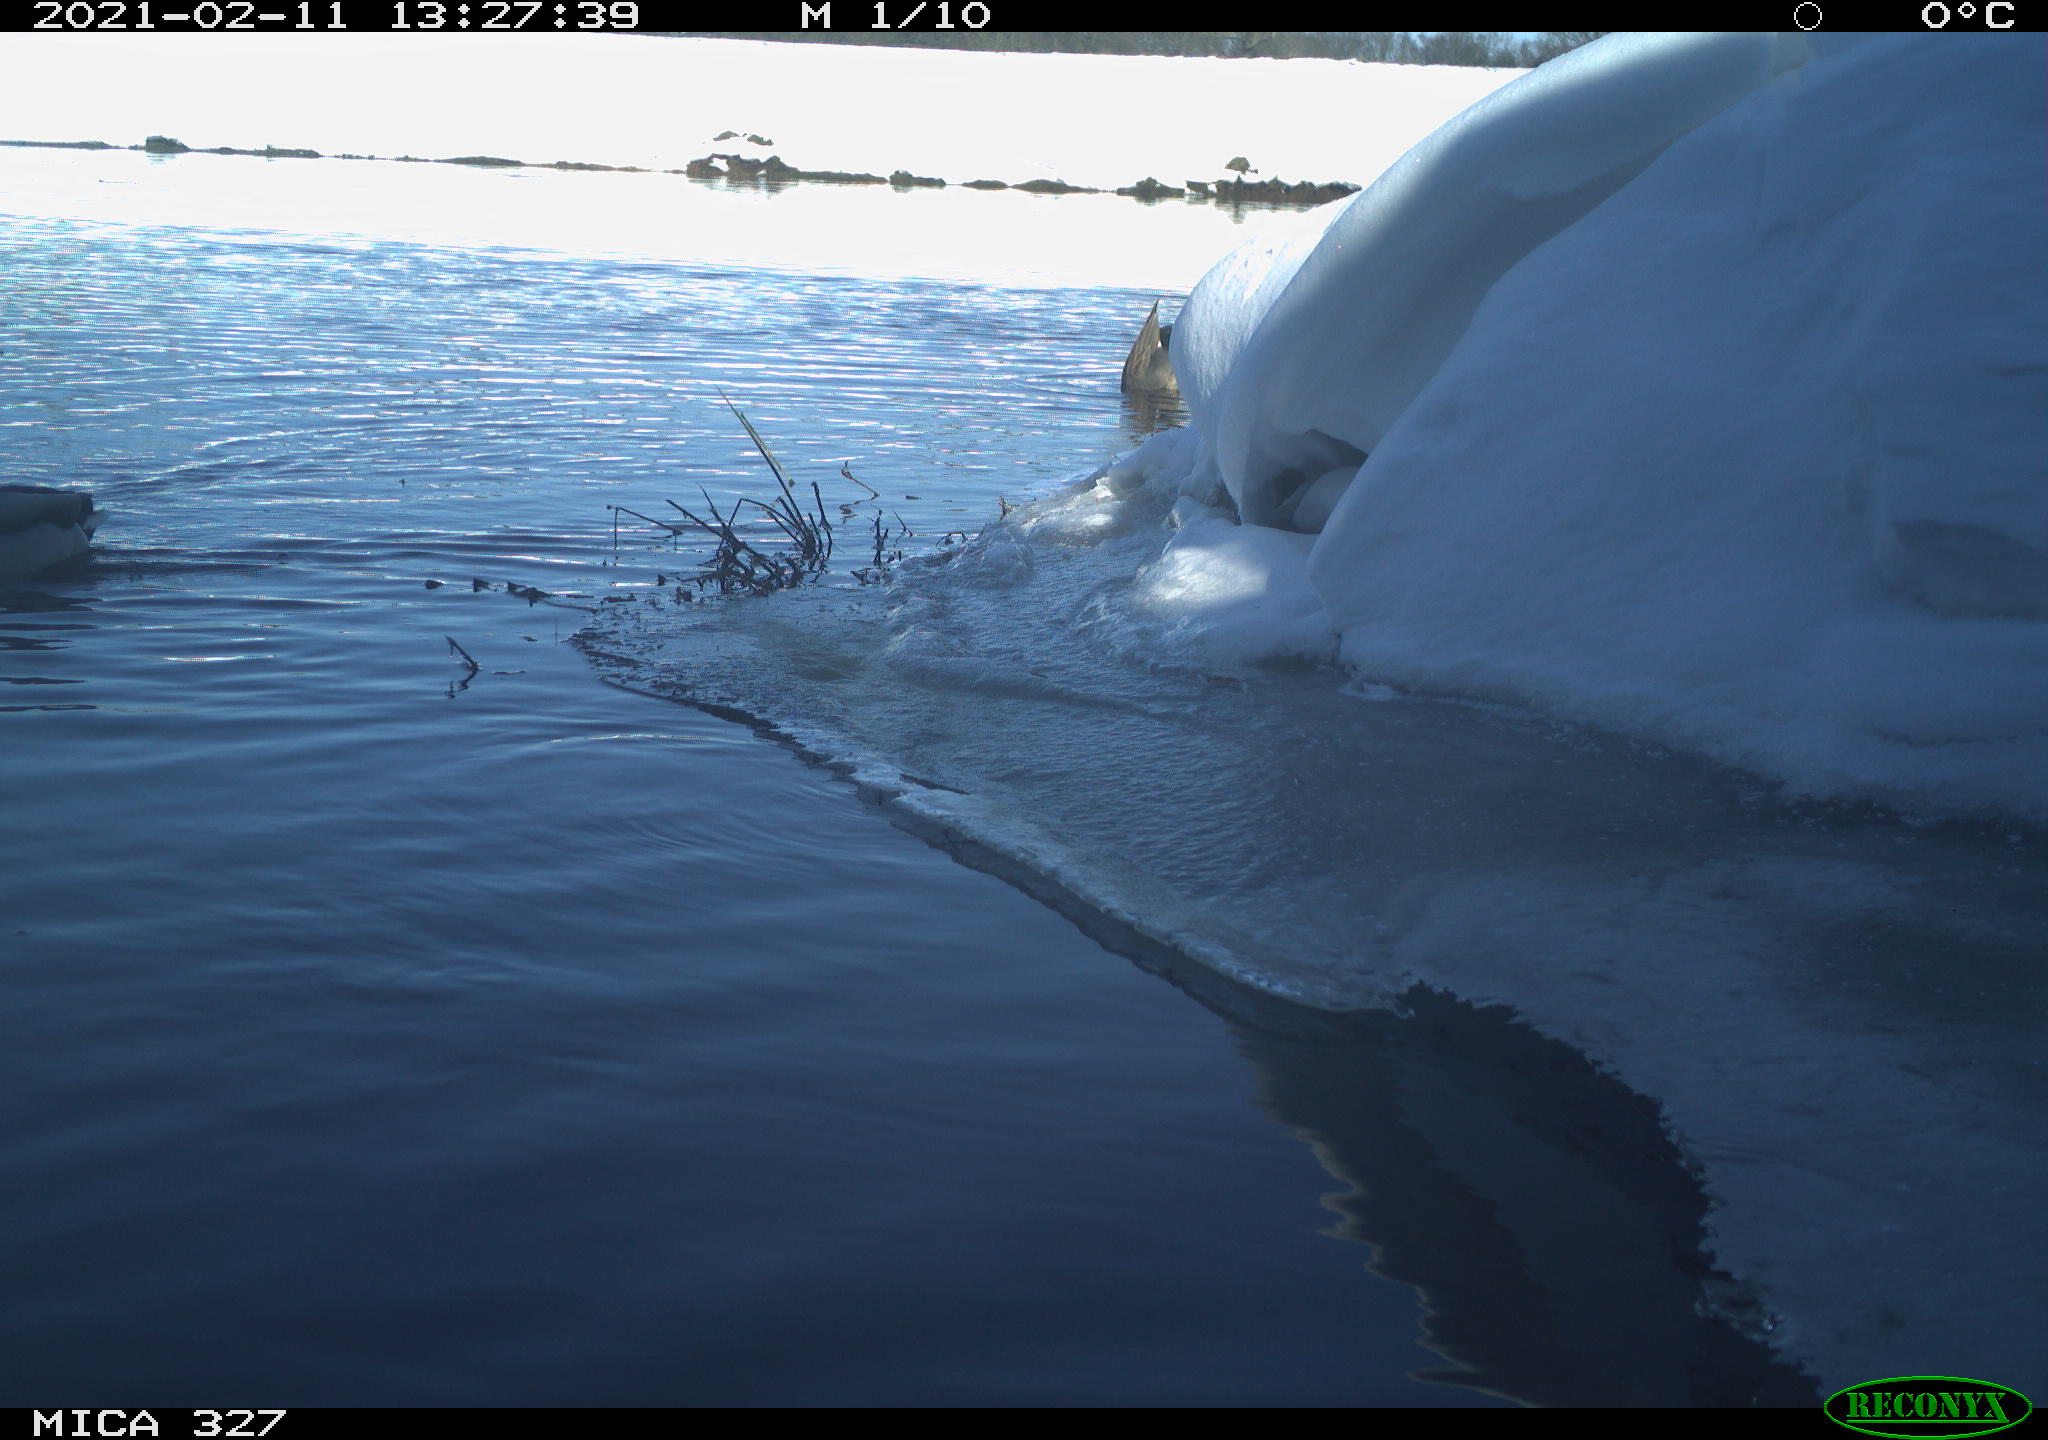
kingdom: Animalia
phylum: Chordata
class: Aves
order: Anseriformes
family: Anatidae
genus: Anas
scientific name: Anas platyrhynchos
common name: Mallard
